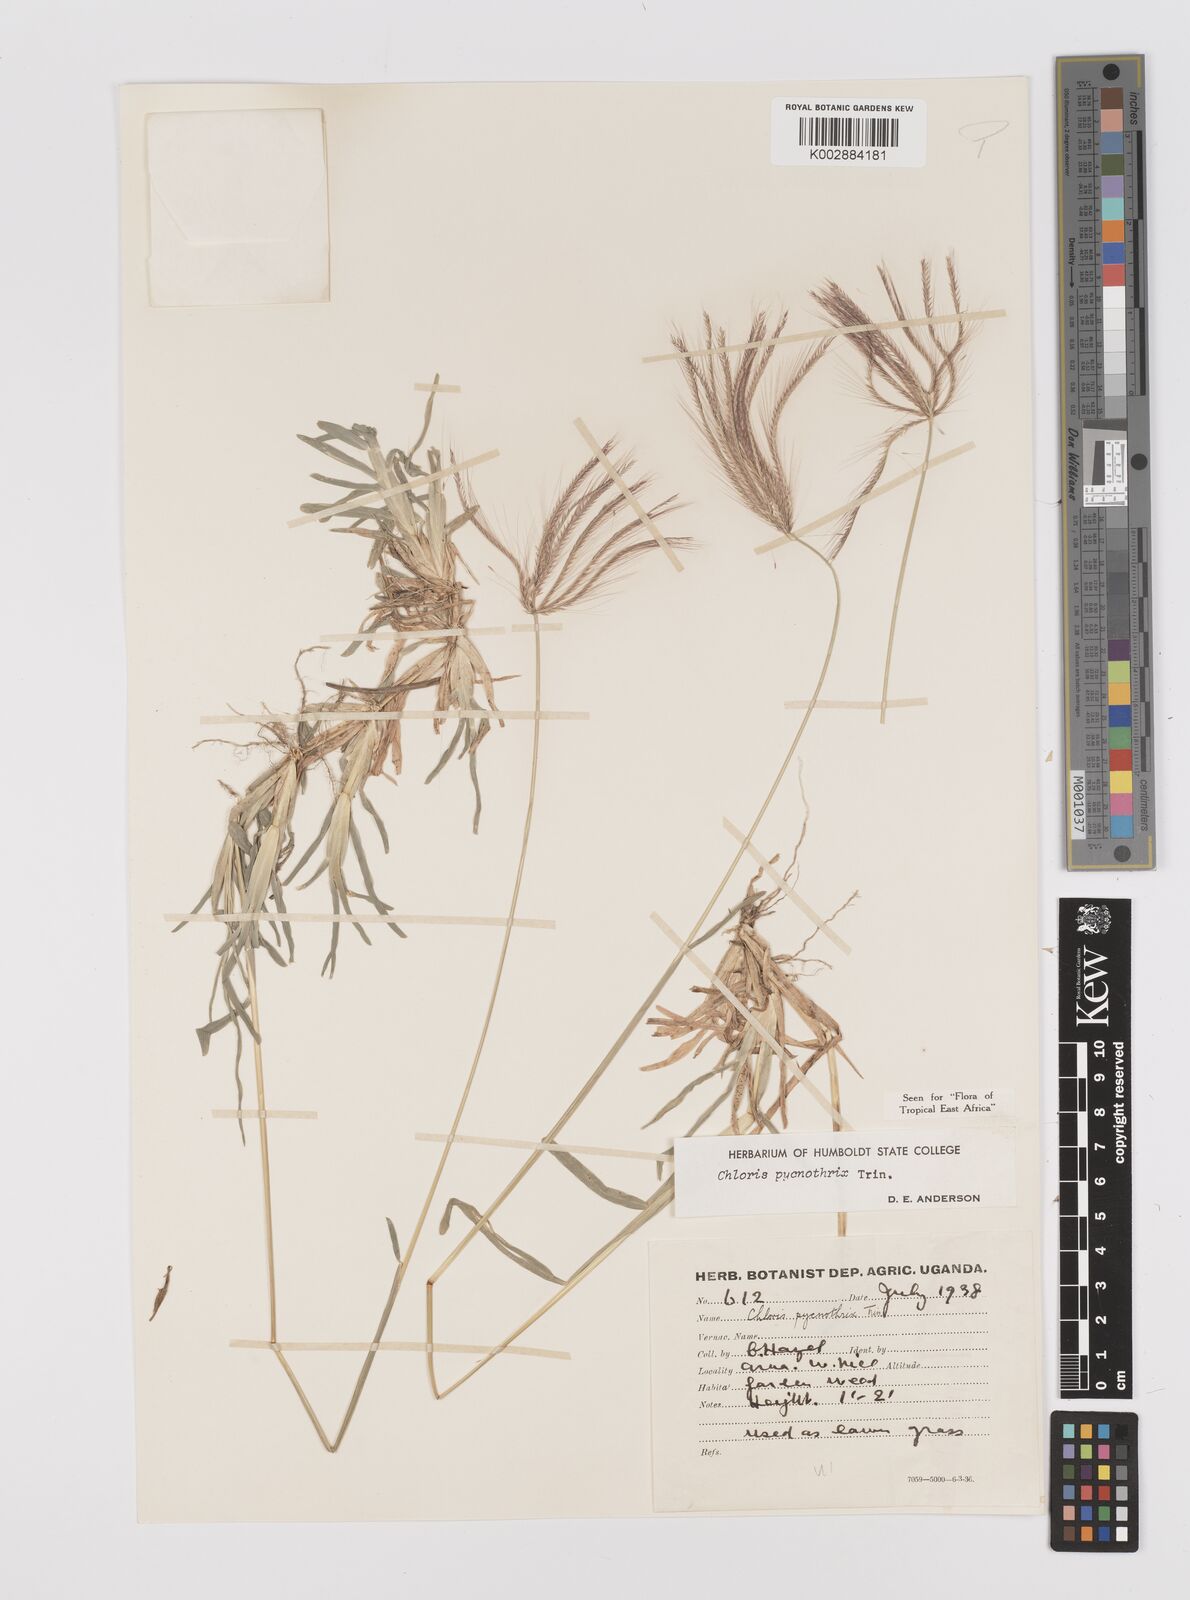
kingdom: Plantae
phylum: Tracheophyta
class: Liliopsida
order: Poales
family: Poaceae
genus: Chloris
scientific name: Chloris pycnothrix
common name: Spiderweb chloris
